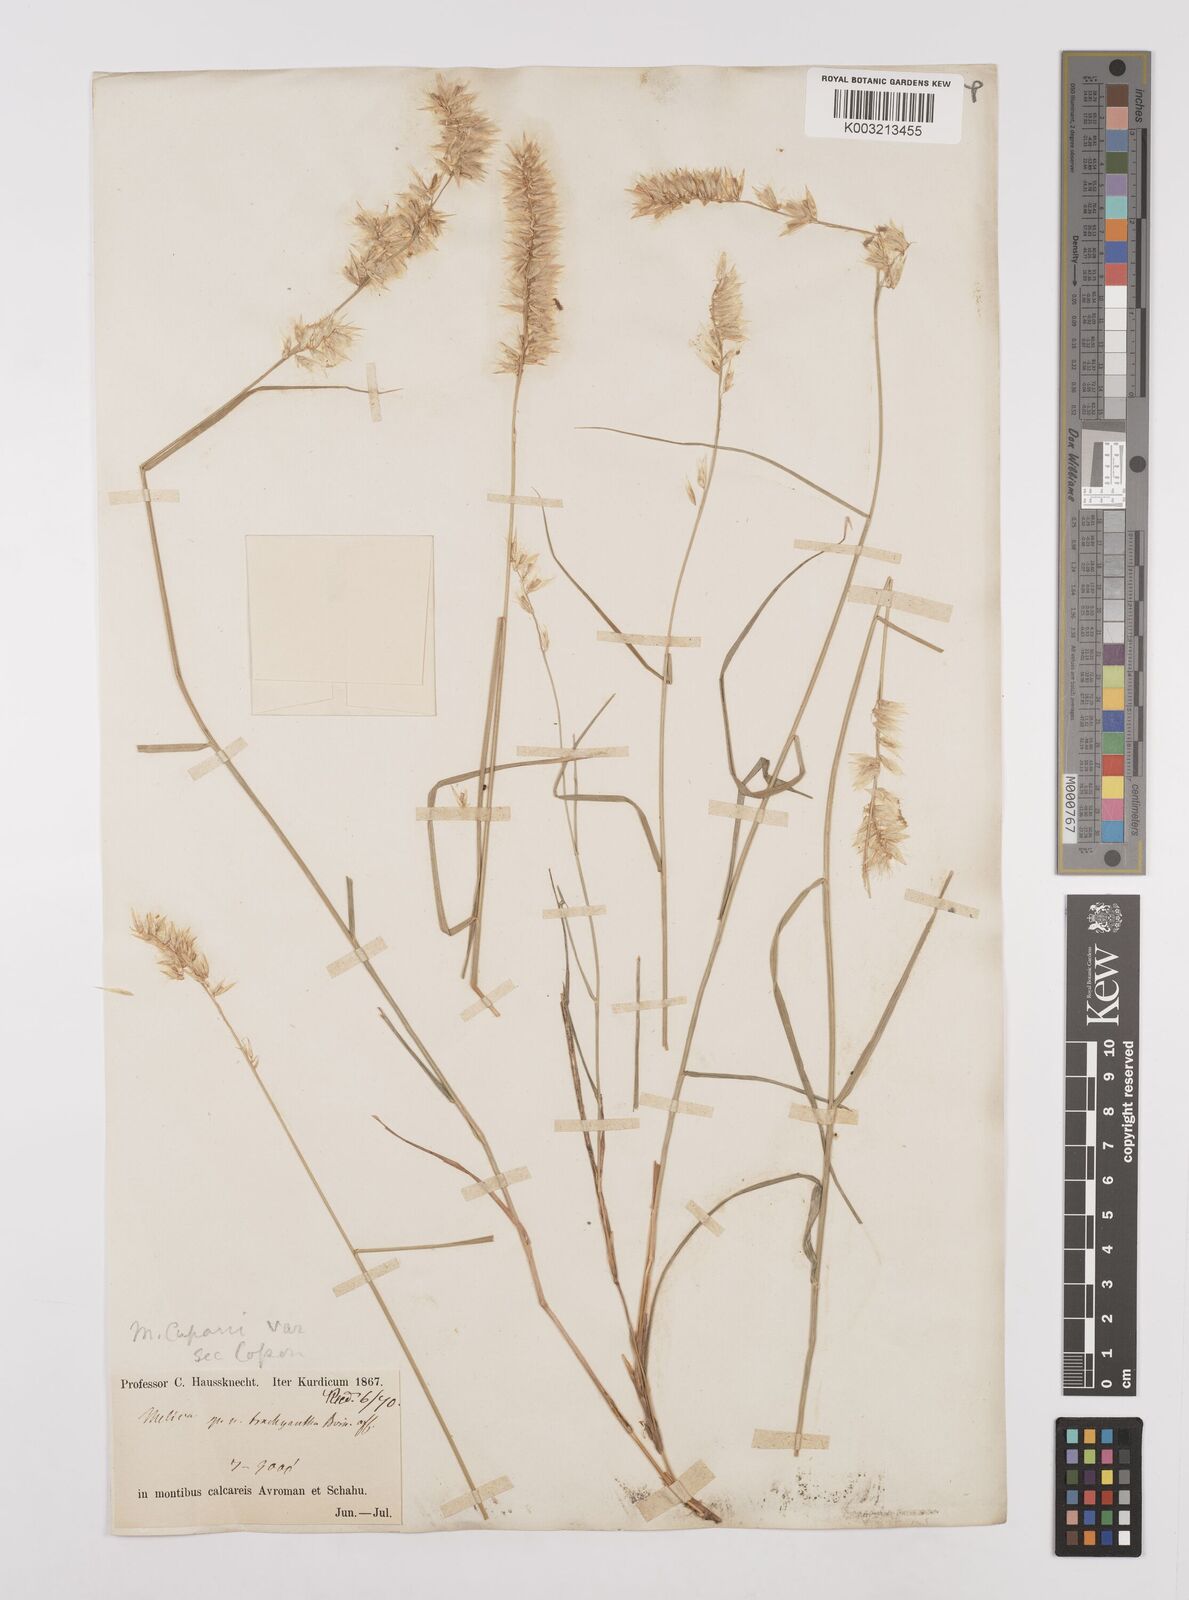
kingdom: Plantae
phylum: Tracheophyta
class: Liliopsida
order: Poales
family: Poaceae
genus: Melica
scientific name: Melica persica
